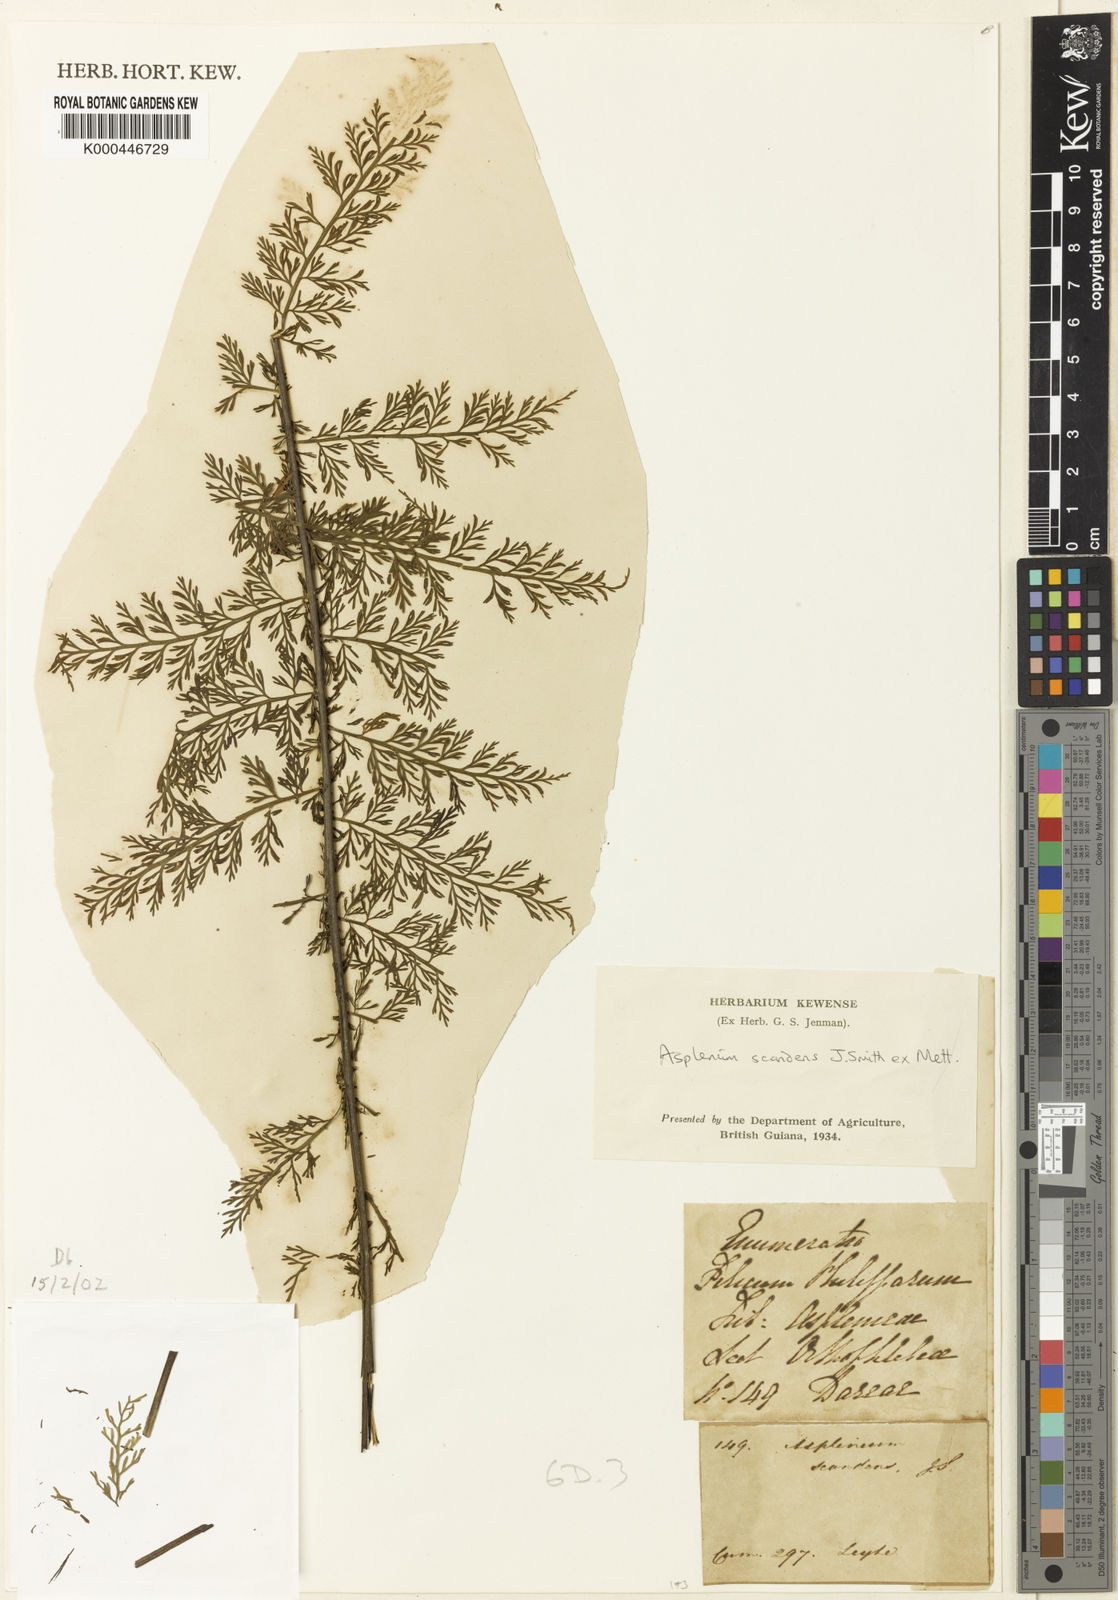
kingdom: Plantae
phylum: Tracheophyta
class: Polypodiopsida
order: Polypodiales
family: Aspleniaceae
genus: Asplenium
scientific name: Asplenium
